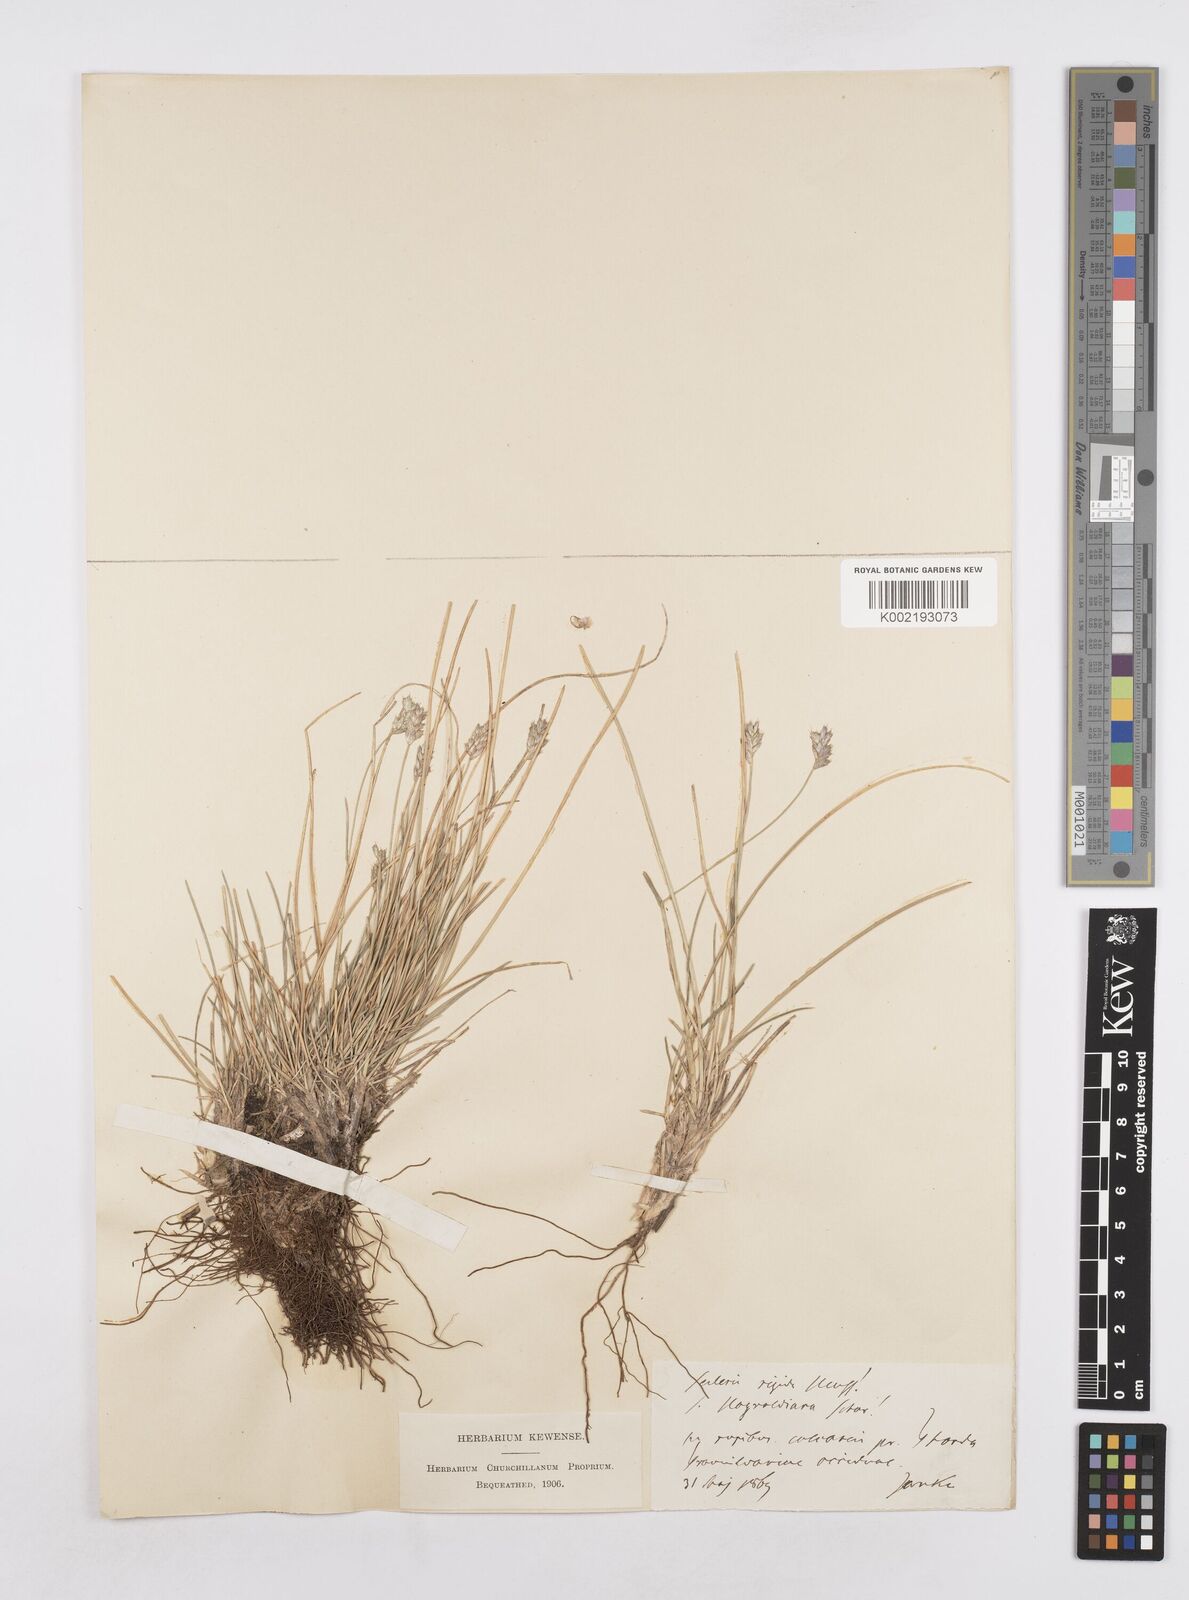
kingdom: Plantae
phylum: Tracheophyta
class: Liliopsida
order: Poales
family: Poaceae
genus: Sesleria
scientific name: Sesleria rigida
